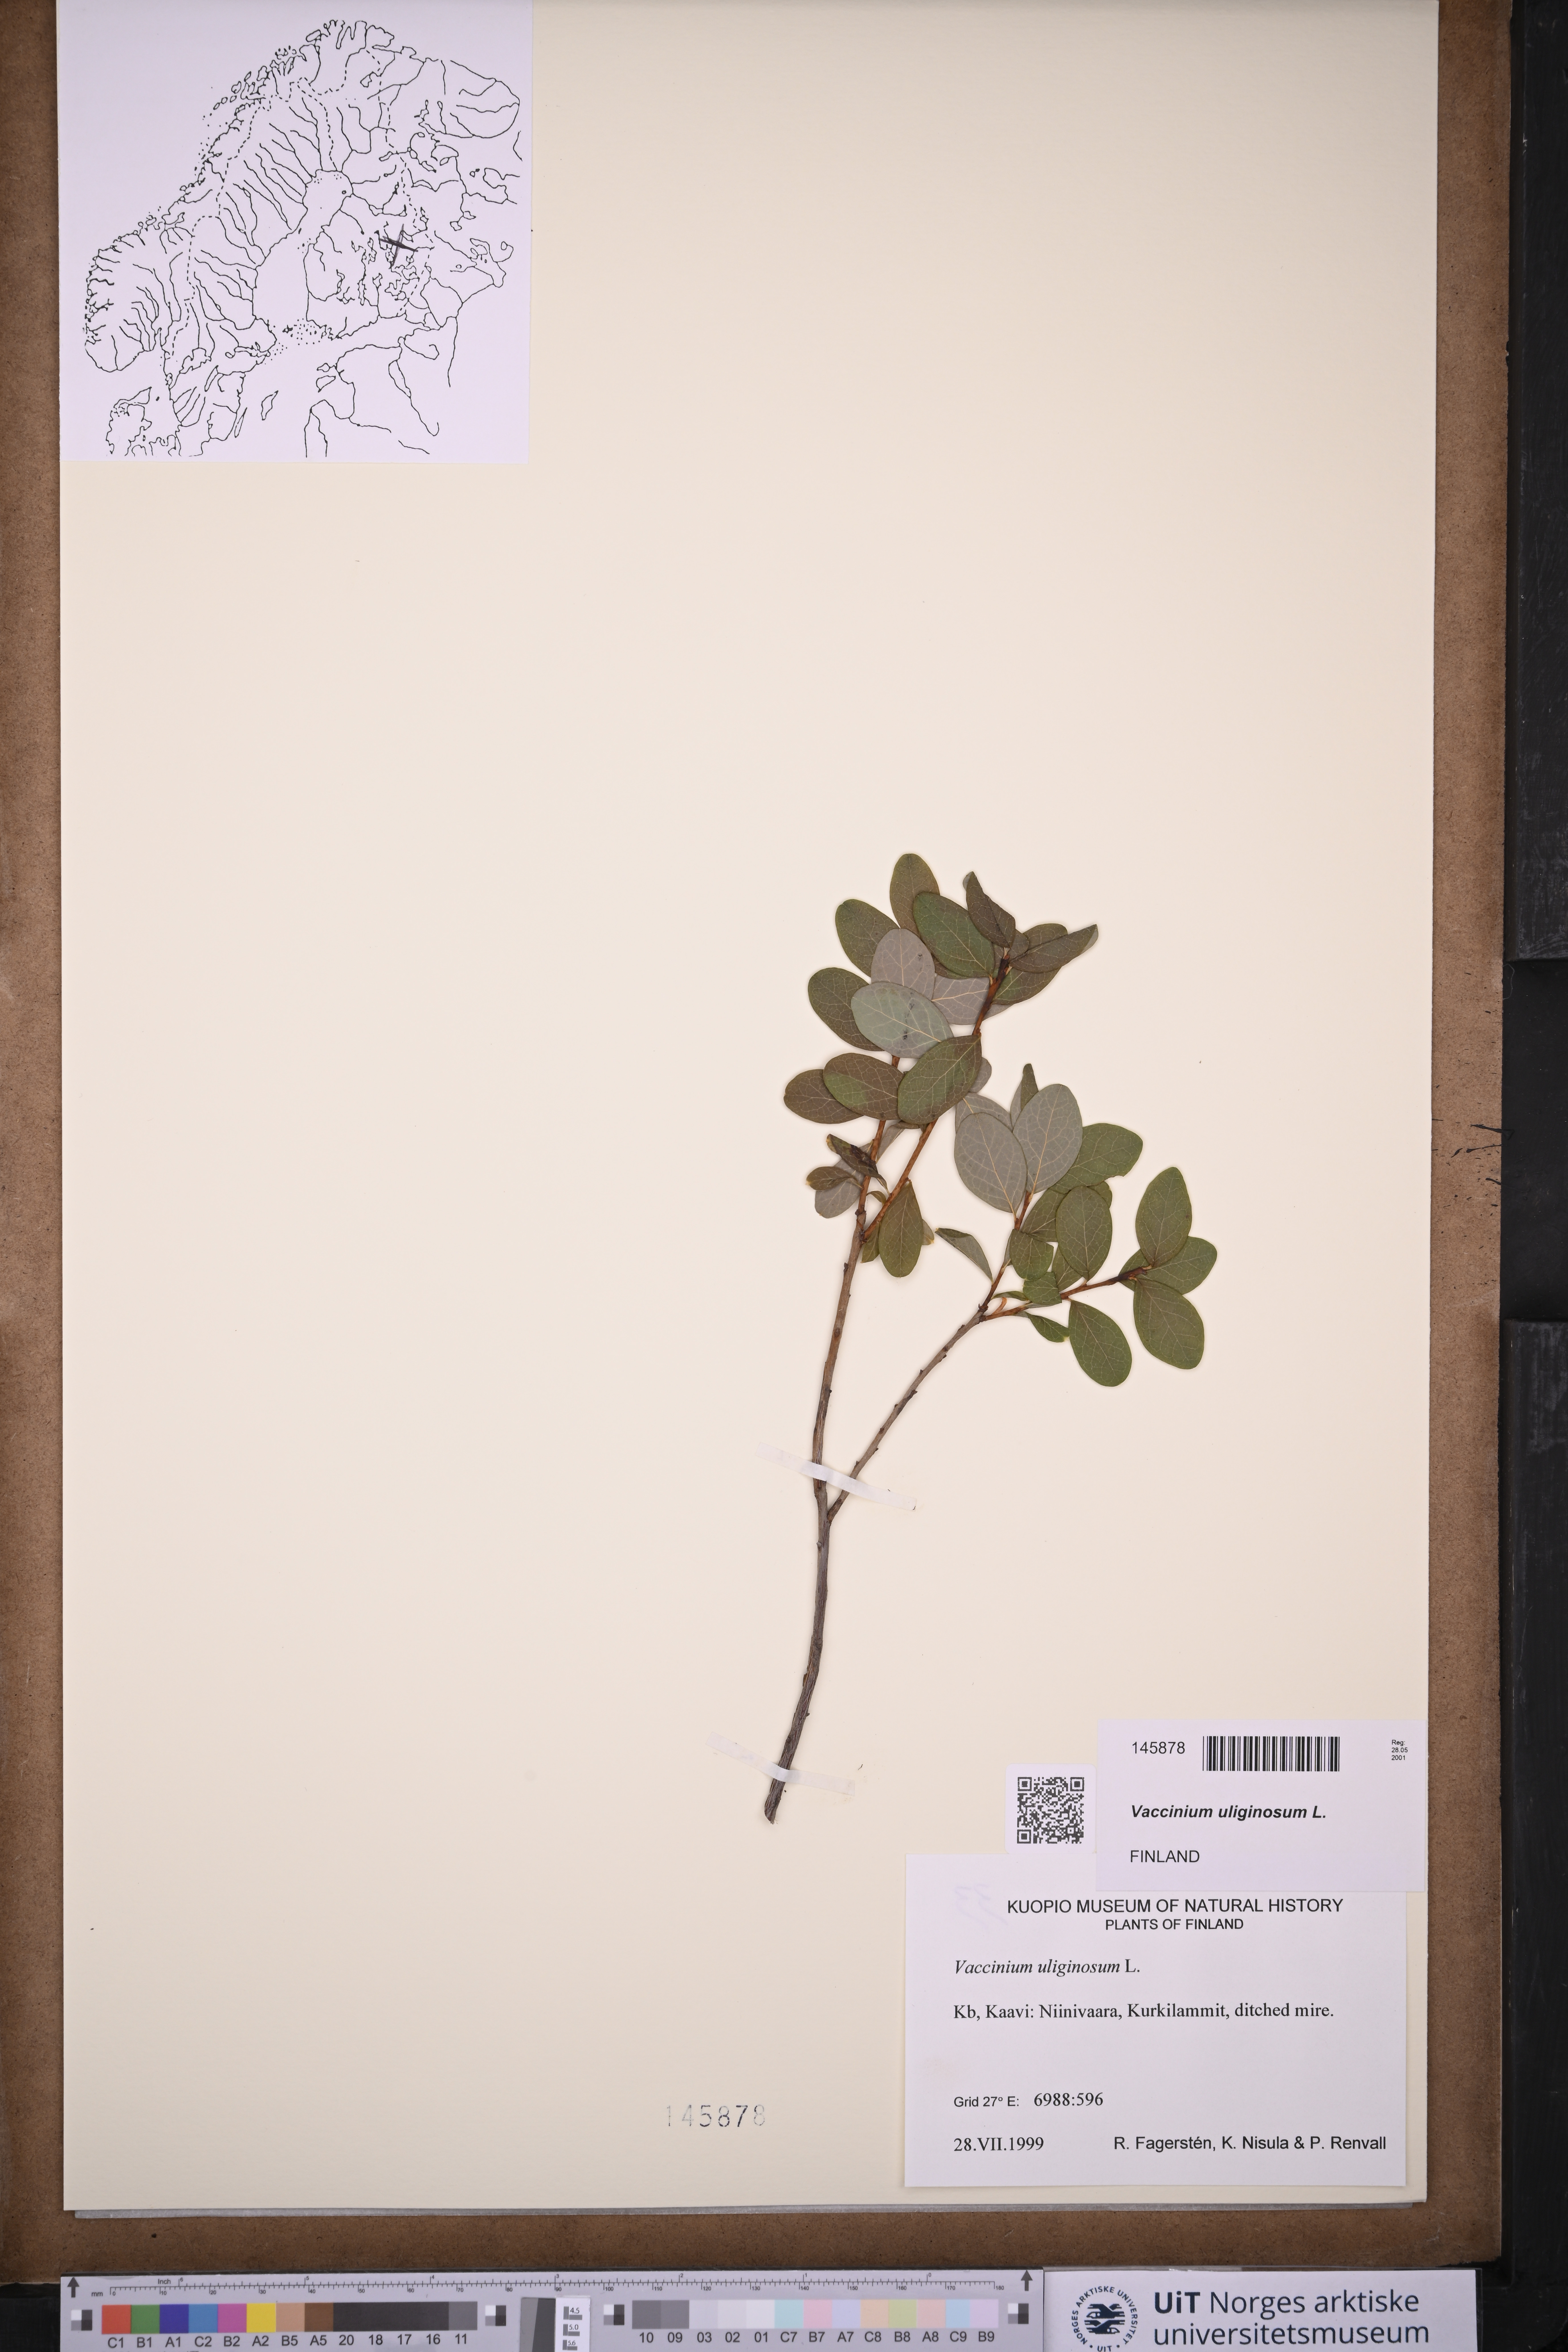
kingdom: Plantae
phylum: Tracheophyta
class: Magnoliopsida
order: Ericales
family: Ericaceae
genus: Vaccinium
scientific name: Vaccinium uliginosum
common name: Bog bilberry
